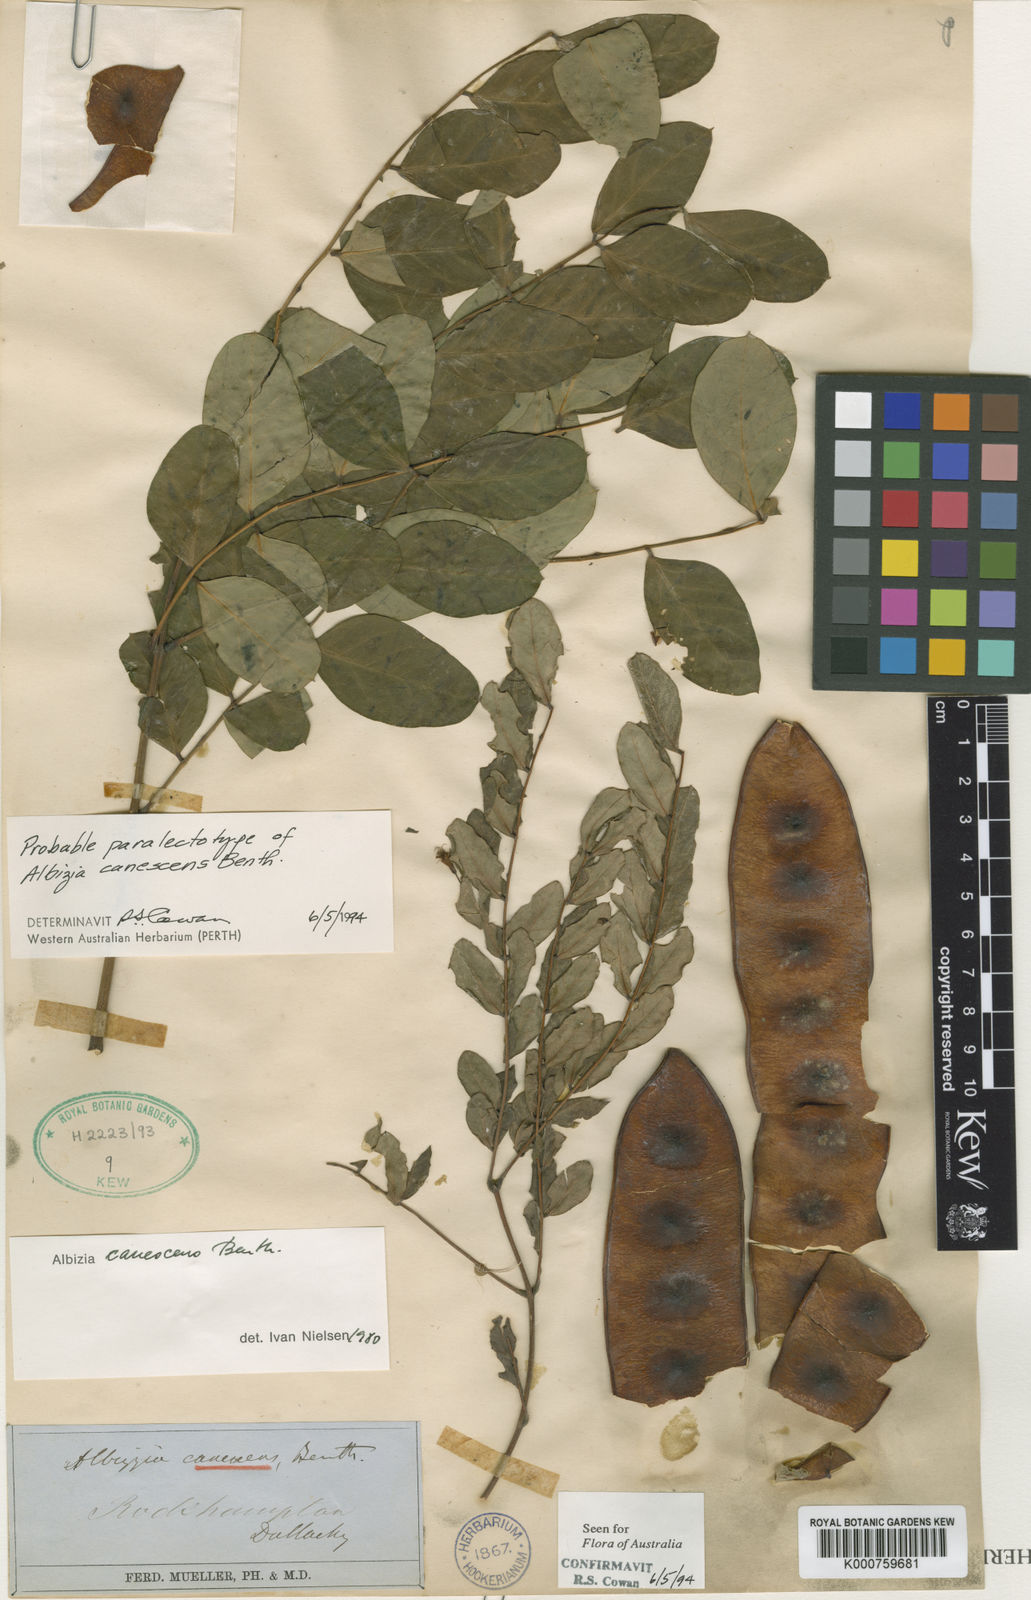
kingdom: Plantae
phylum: Tracheophyta
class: Magnoliopsida
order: Fabales
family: Fabaceae
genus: Albizia
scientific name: Albizia canescens
